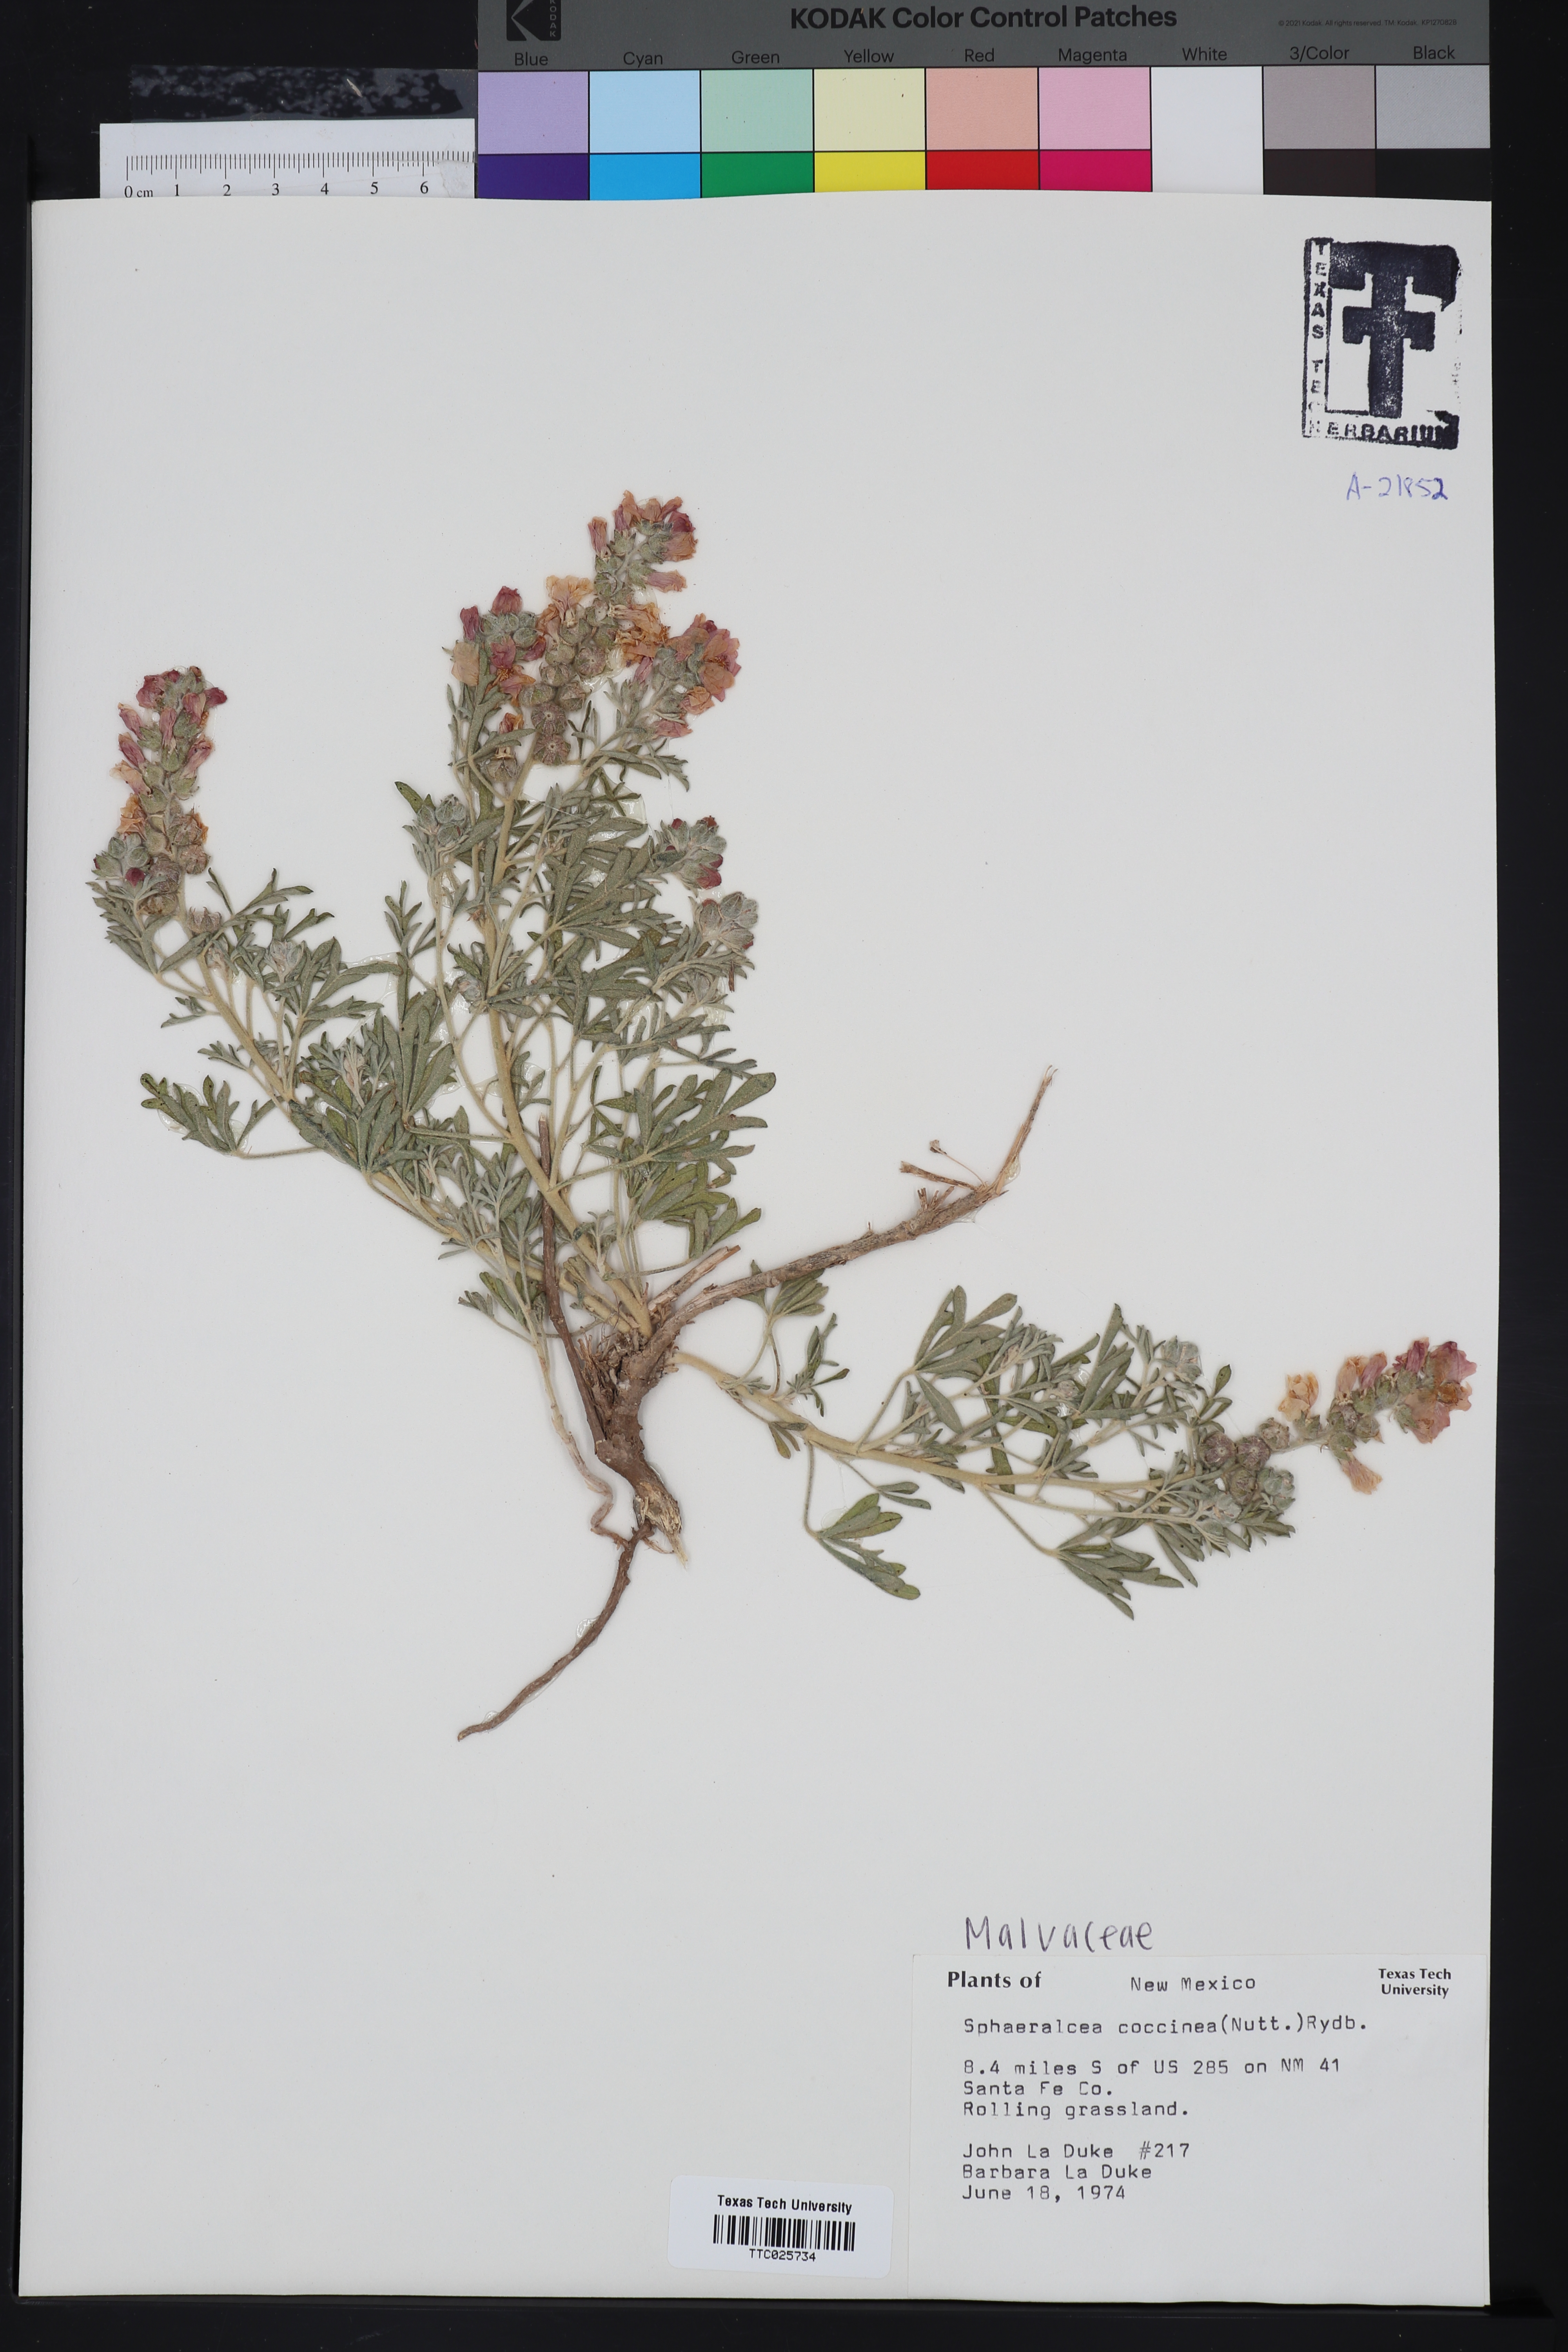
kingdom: Plantae
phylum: Tracheophyta
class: Magnoliopsida
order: Malvales
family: Malvaceae
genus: Sphaeralcea
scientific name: Sphaeralcea coccinea
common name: Moss-rose
